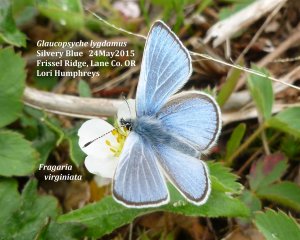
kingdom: Animalia
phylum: Arthropoda
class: Insecta
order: Lepidoptera
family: Lycaenidae
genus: Glaucopsyche
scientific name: Glaucopsyche lygdamus
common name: Silvery Blue
